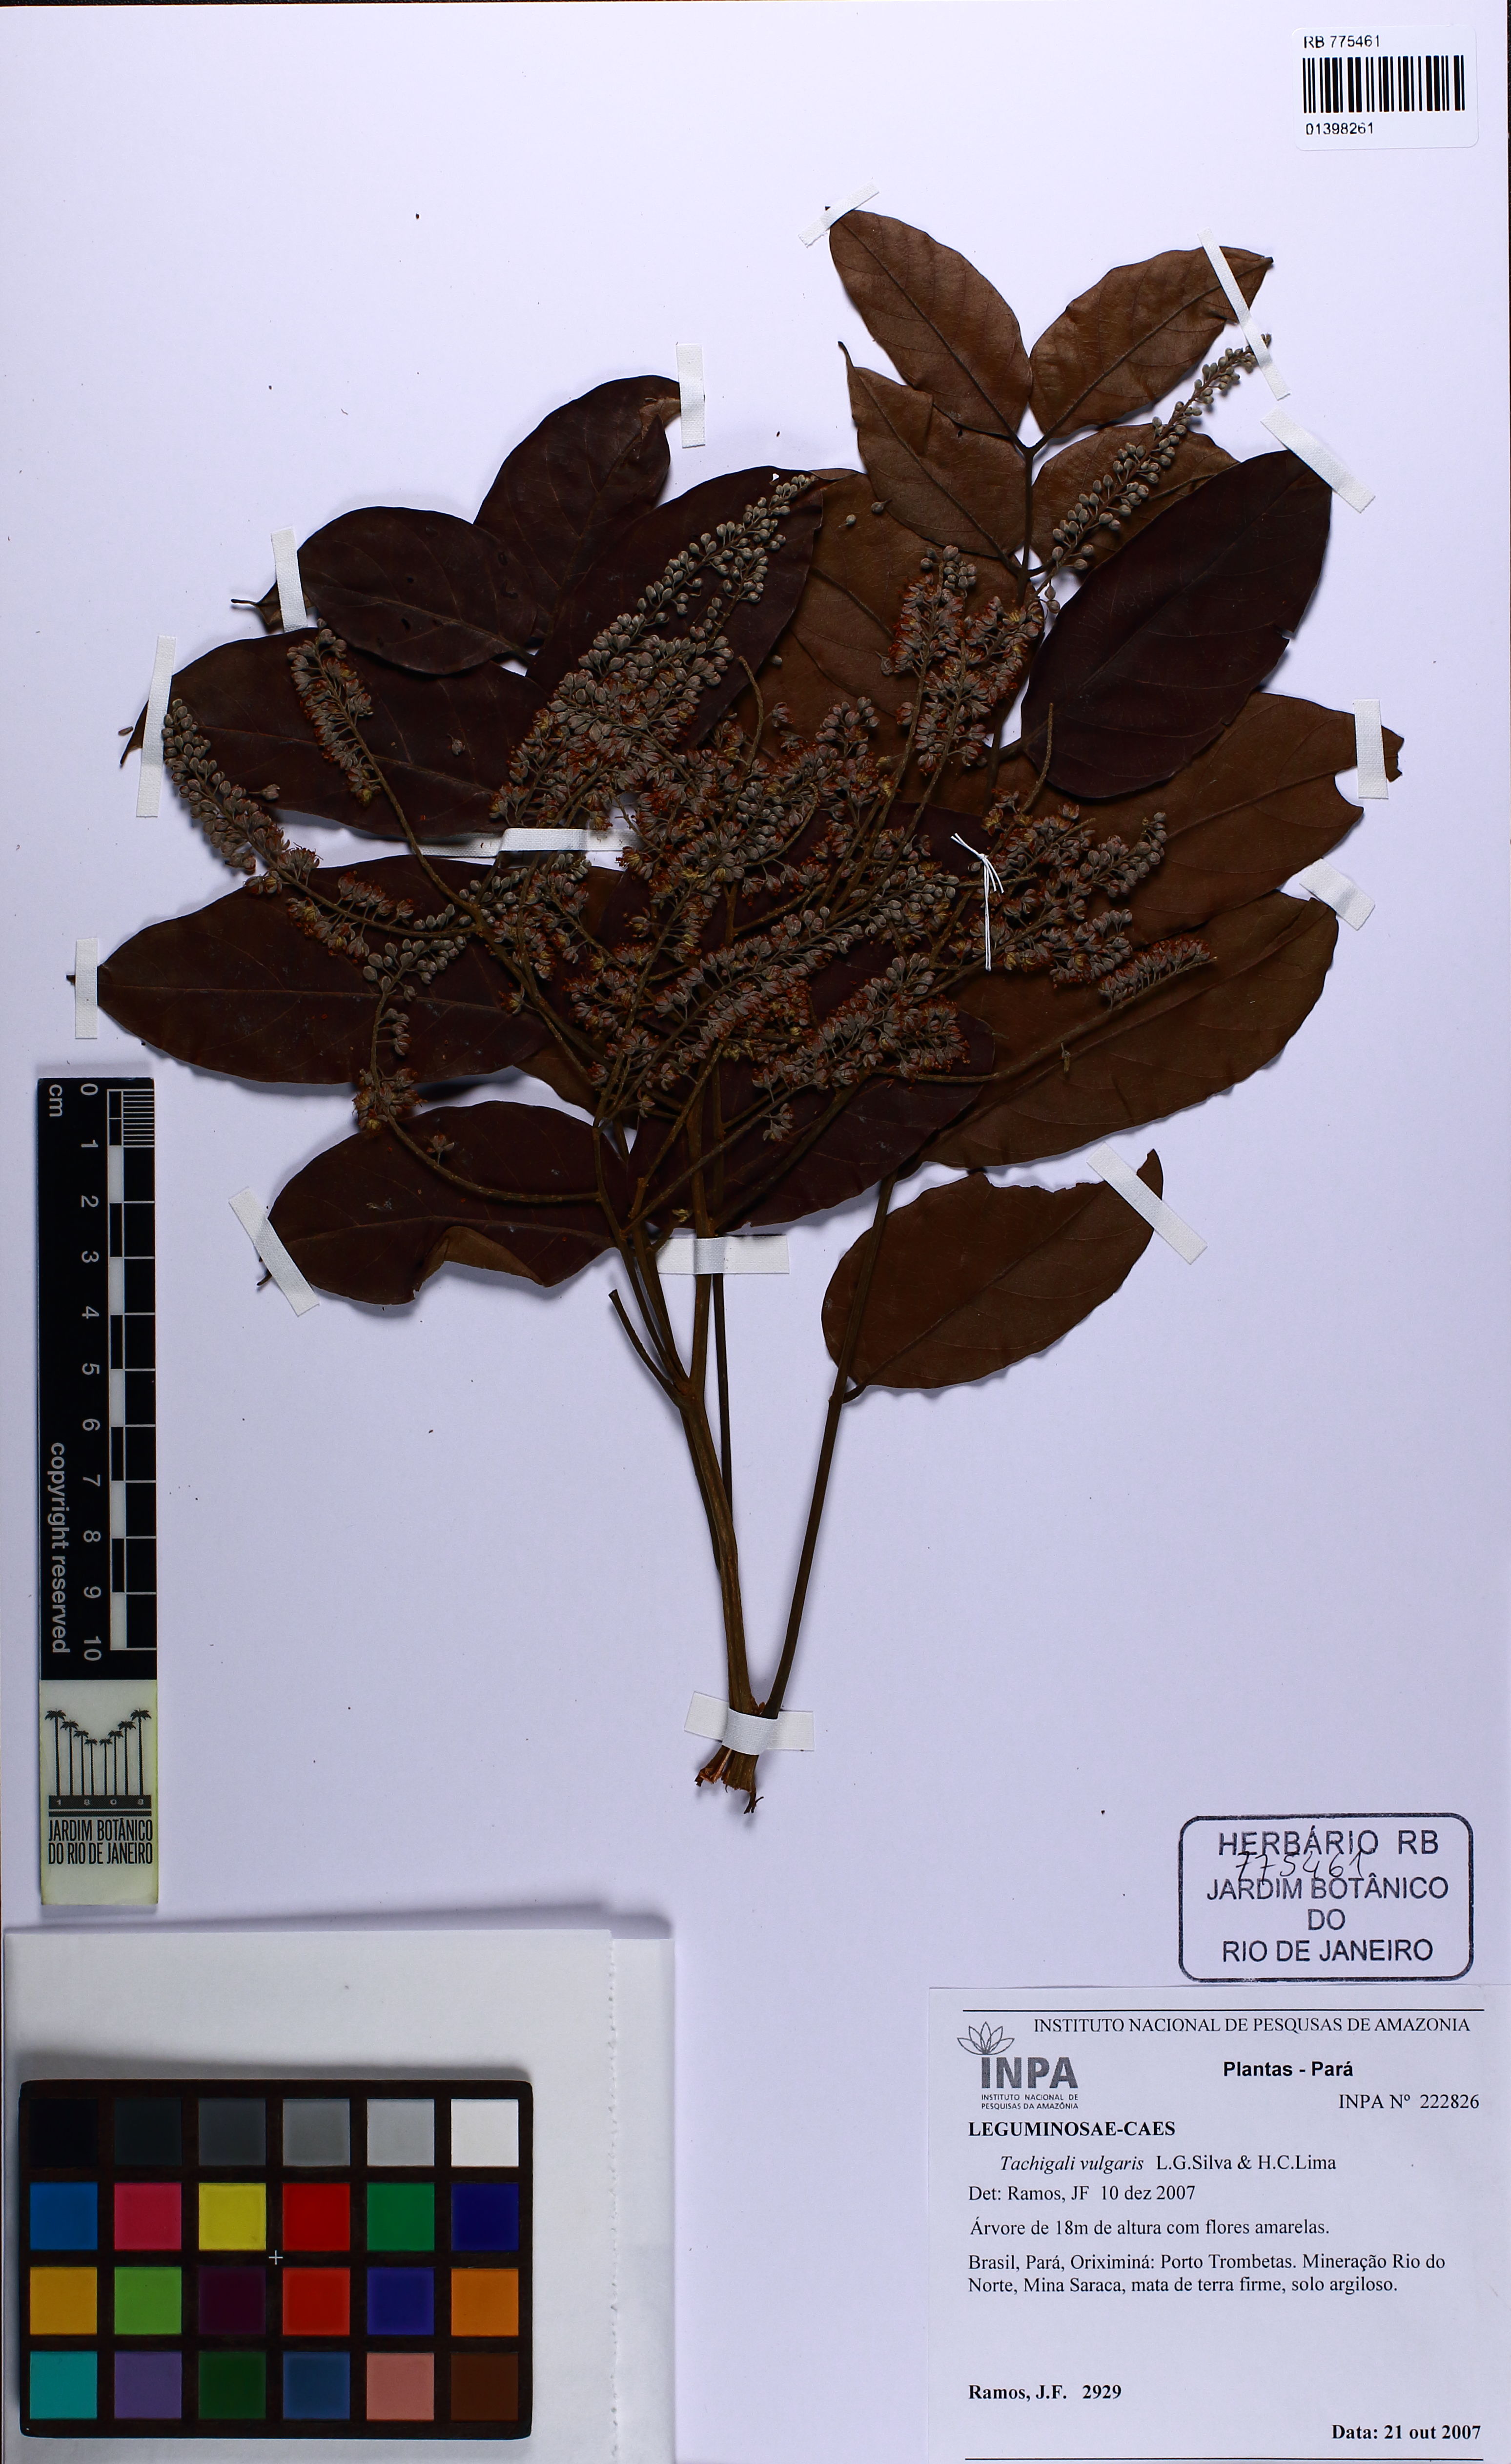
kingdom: Plantae
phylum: Tracheophyta
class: Magnoliopsida
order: Fabales
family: Fabaceae
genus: Tachigali
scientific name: Tachigali vulgaris
